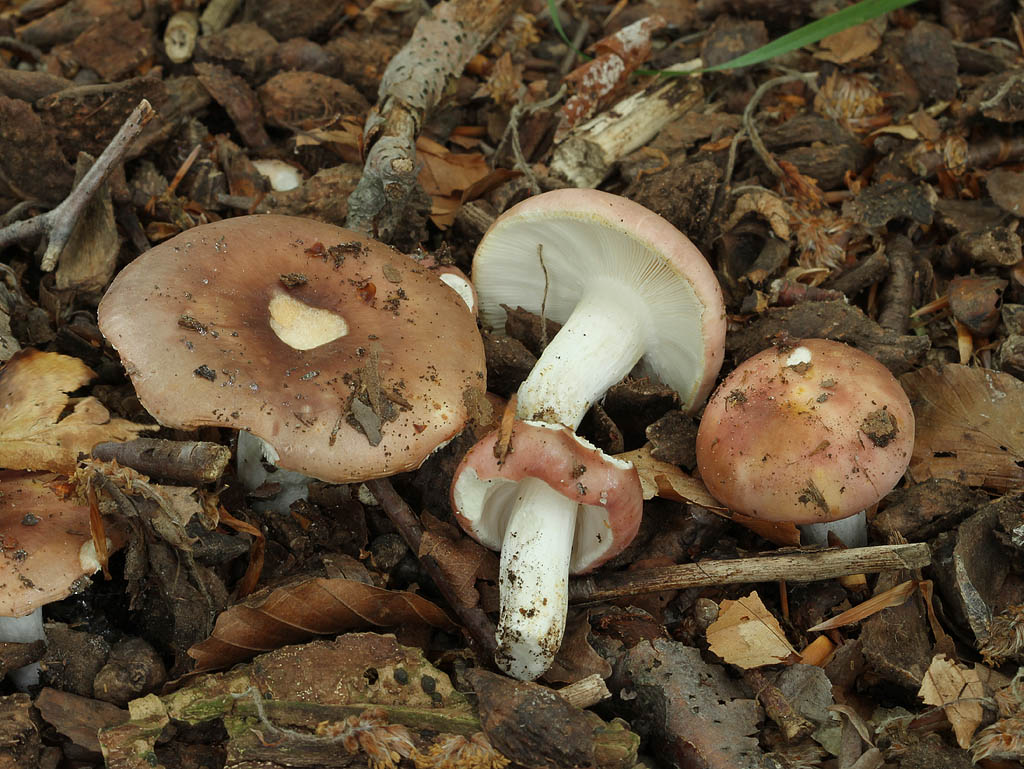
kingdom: Fungi
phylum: Basidiomycota
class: Agaricomycetes
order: Russulales
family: Russulaceae
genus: Russula
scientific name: Russula vesca
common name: spiselig skørhat
